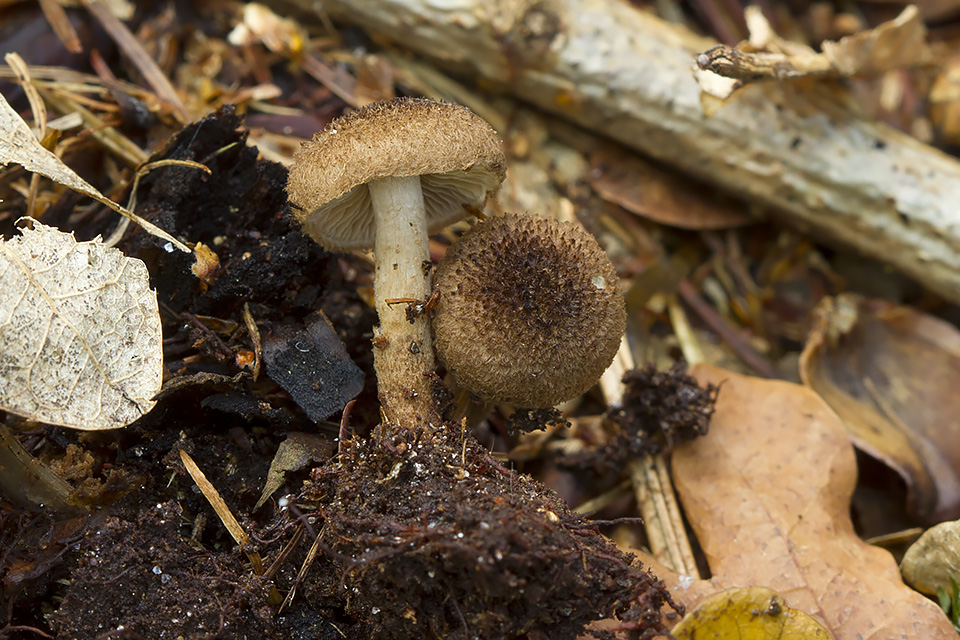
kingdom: Fungi
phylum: Basidiomycota
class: Agaricomycetes
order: Agaricales
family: Inocybaceae
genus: Inocybe
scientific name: Inocybe stellatospora
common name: spidsskællet trævlhat
